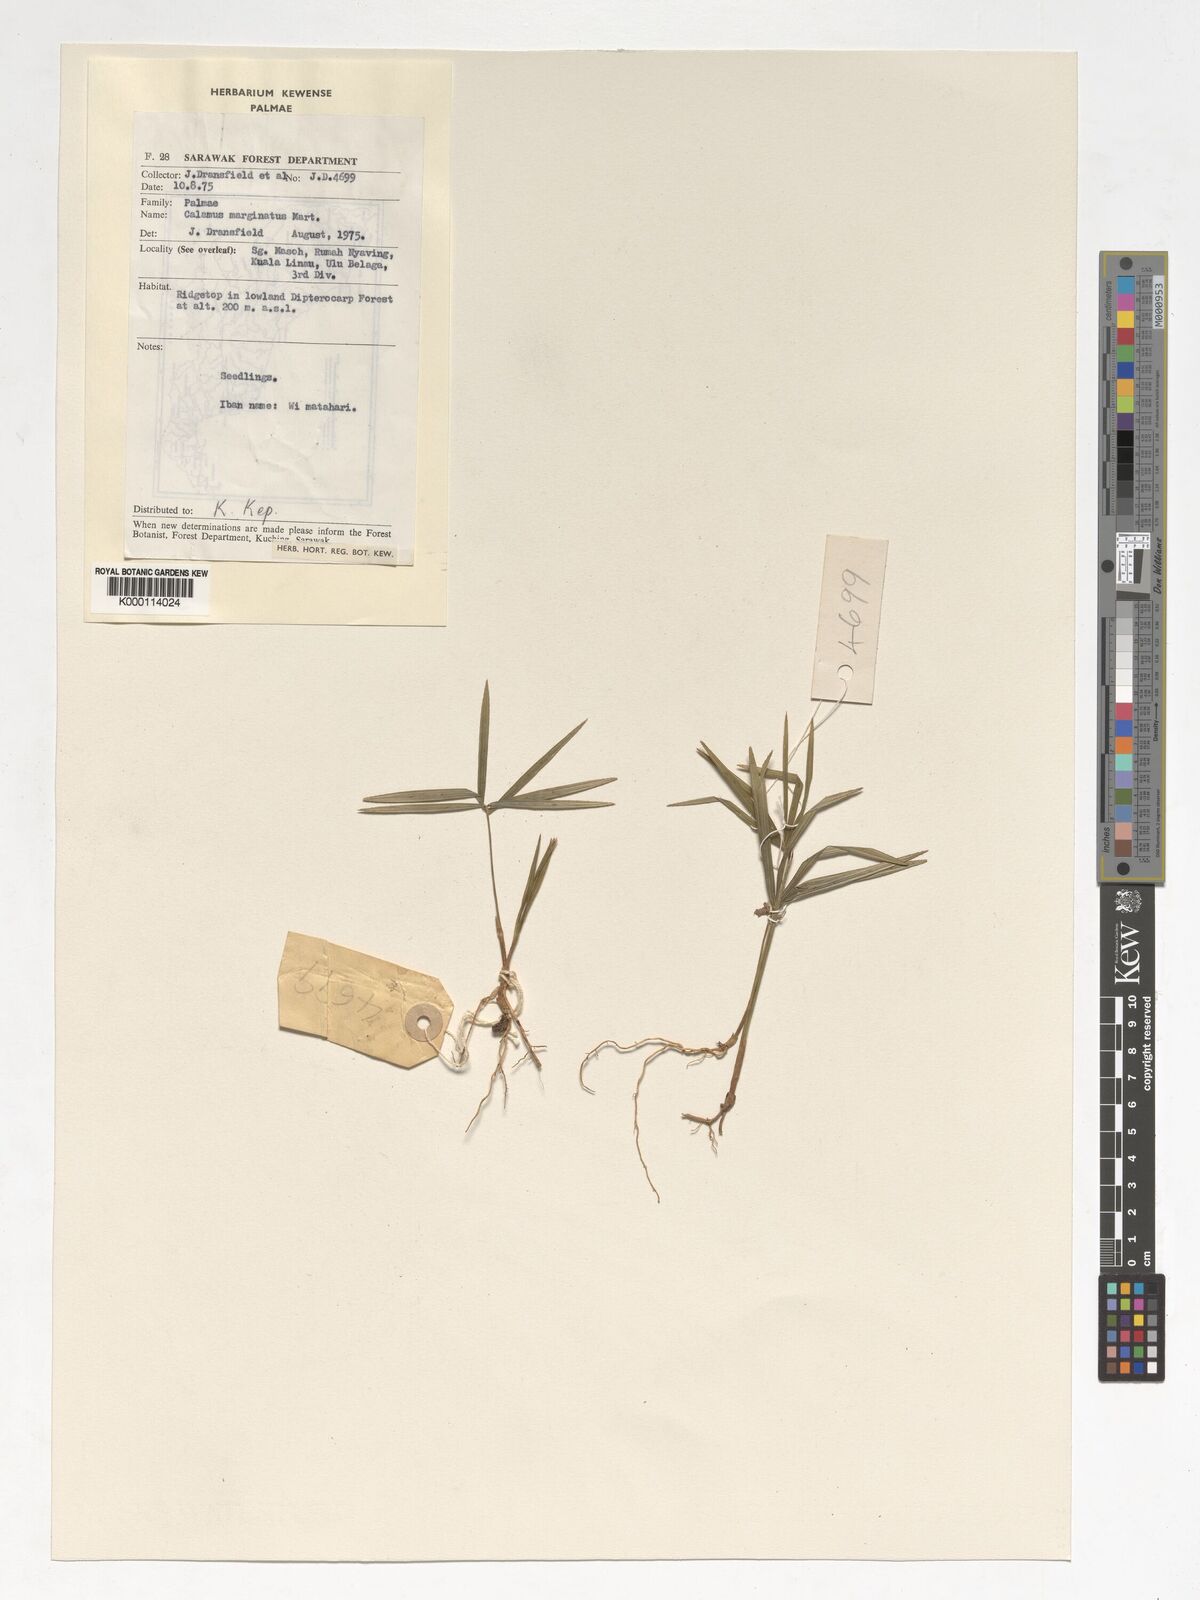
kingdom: Plantae
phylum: Tracheophyta
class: Liliopsida
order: Arecales
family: Arecaceae
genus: Calamus
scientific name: Calamus
